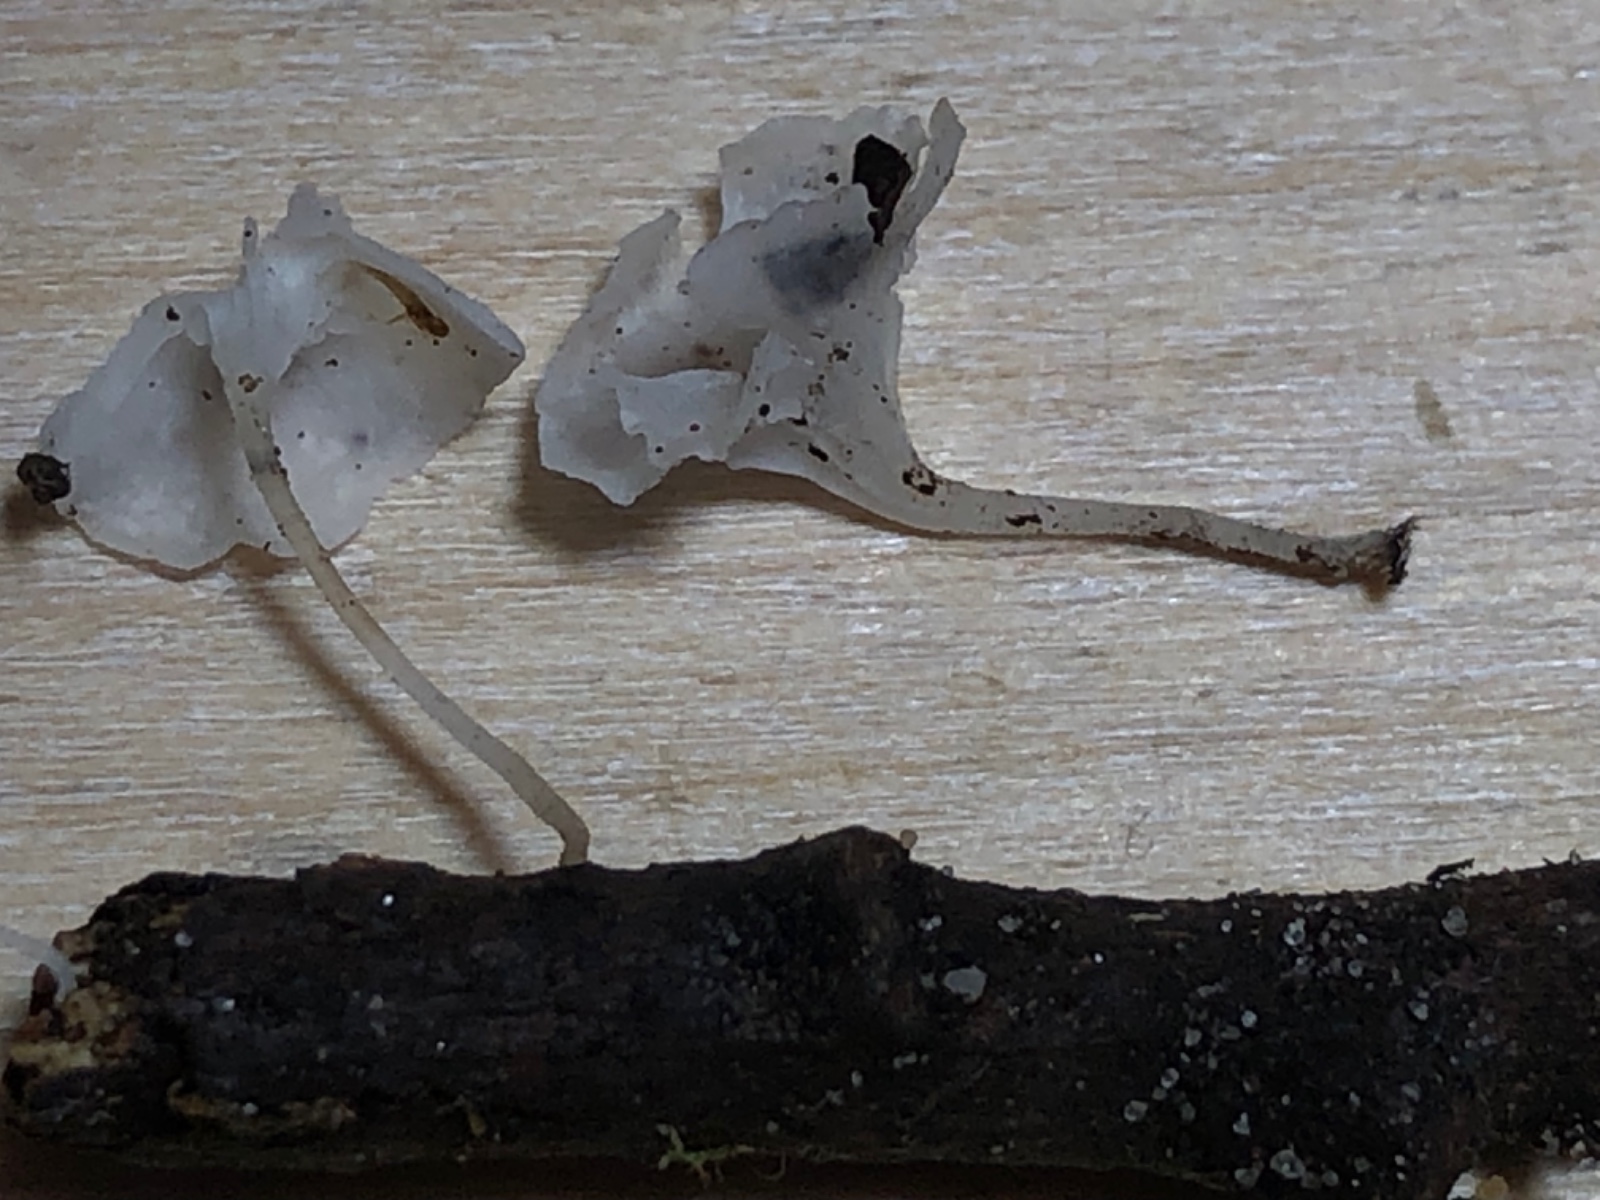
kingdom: Fungi
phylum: Basidiomycota
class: Agaricomycetes
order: Agaricales
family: Mycenaceae
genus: Hemimycena
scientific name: Hemimycena hirsuta
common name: håret huesvamp
